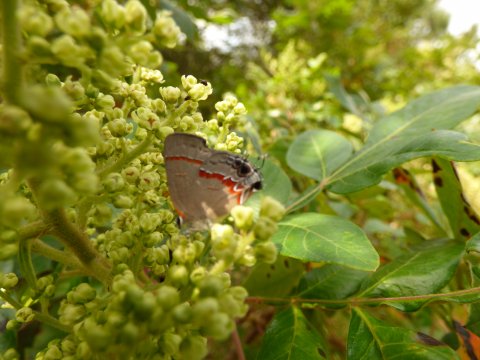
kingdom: Animalia
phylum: Arthropoda
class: Insecta
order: Lepidoptera
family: Lycaenidae
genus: Calycopis
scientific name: Calycopis cecrops
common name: Red-banded Hairstreak
